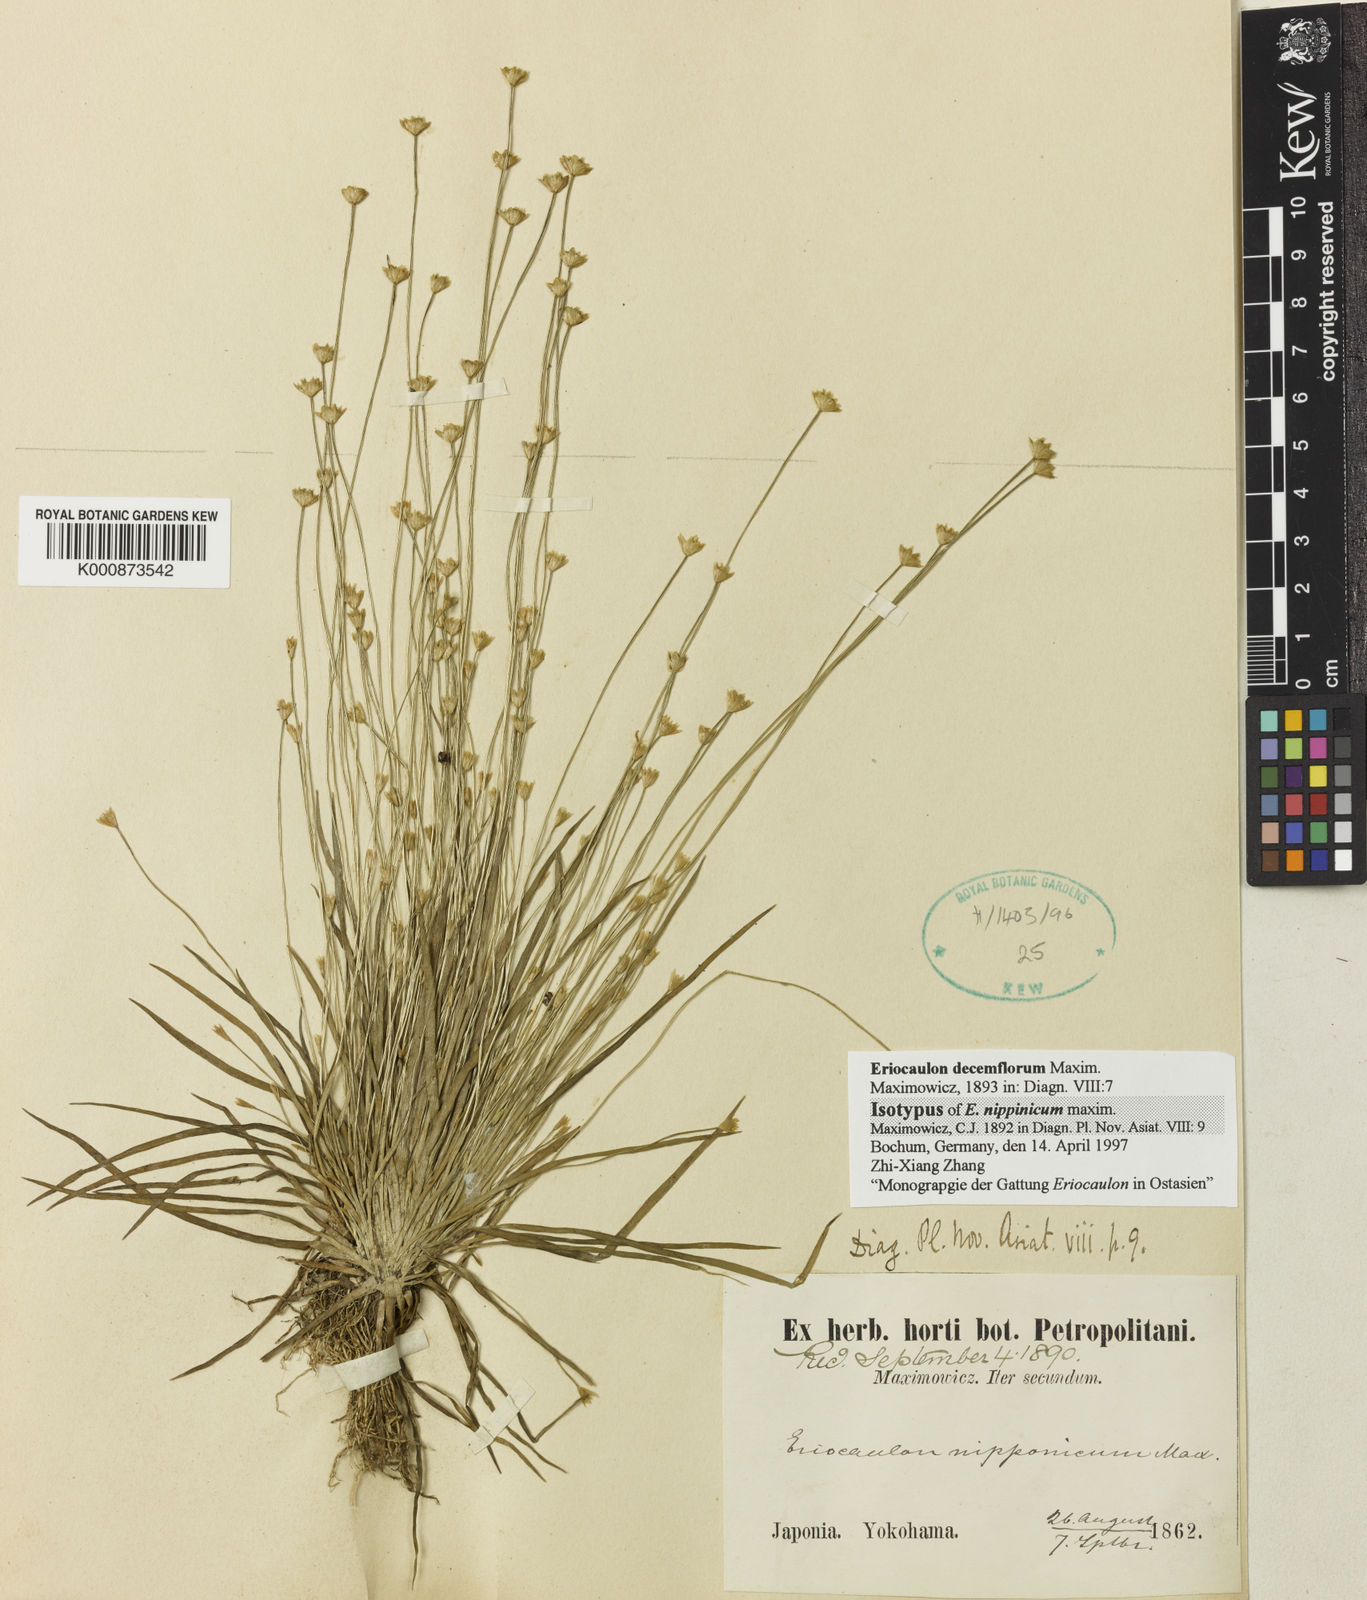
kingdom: Plantae
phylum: Tracheophyta
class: Liliopsida
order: Poales
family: Eriocaulaceae
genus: Eriocaulon
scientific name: Eriocaulon decemflorum
